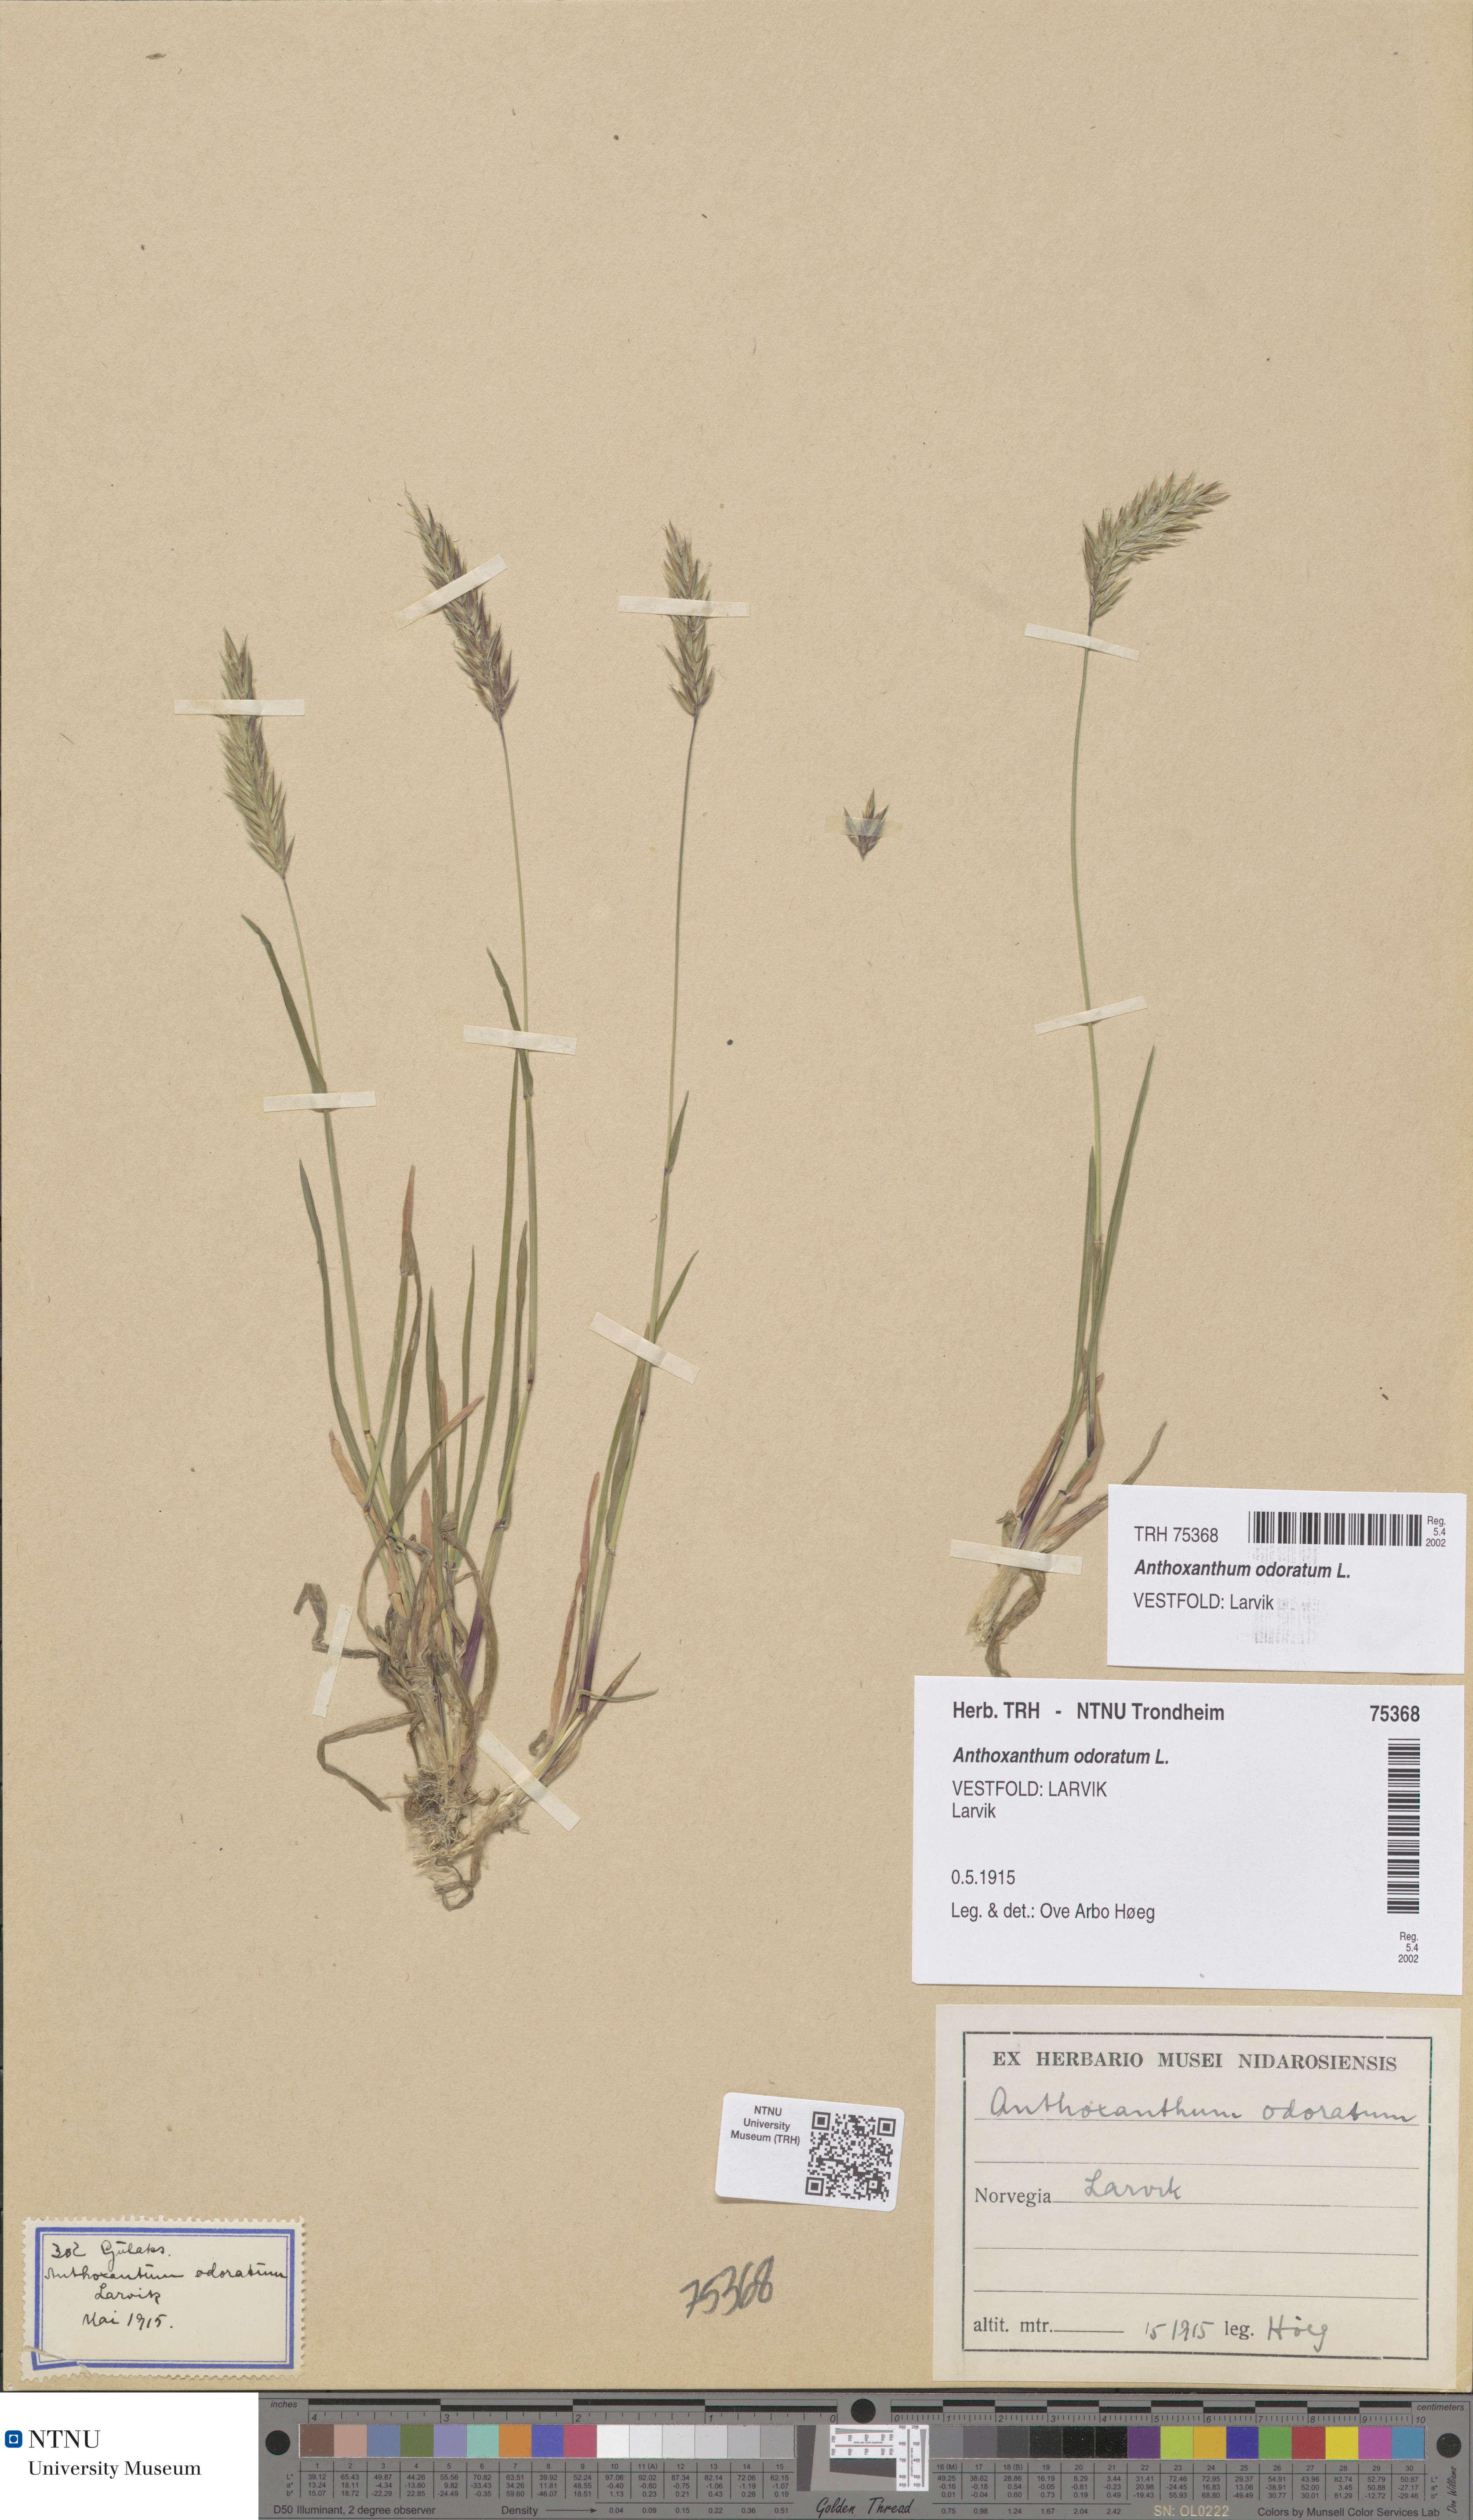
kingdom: Plantae
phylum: Tracheophyta
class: Liliopsida
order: Poales
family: Poaceae
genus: Anthoxanthum
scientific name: Anthoxanthum odoratum
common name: Sweet vernalgrass
